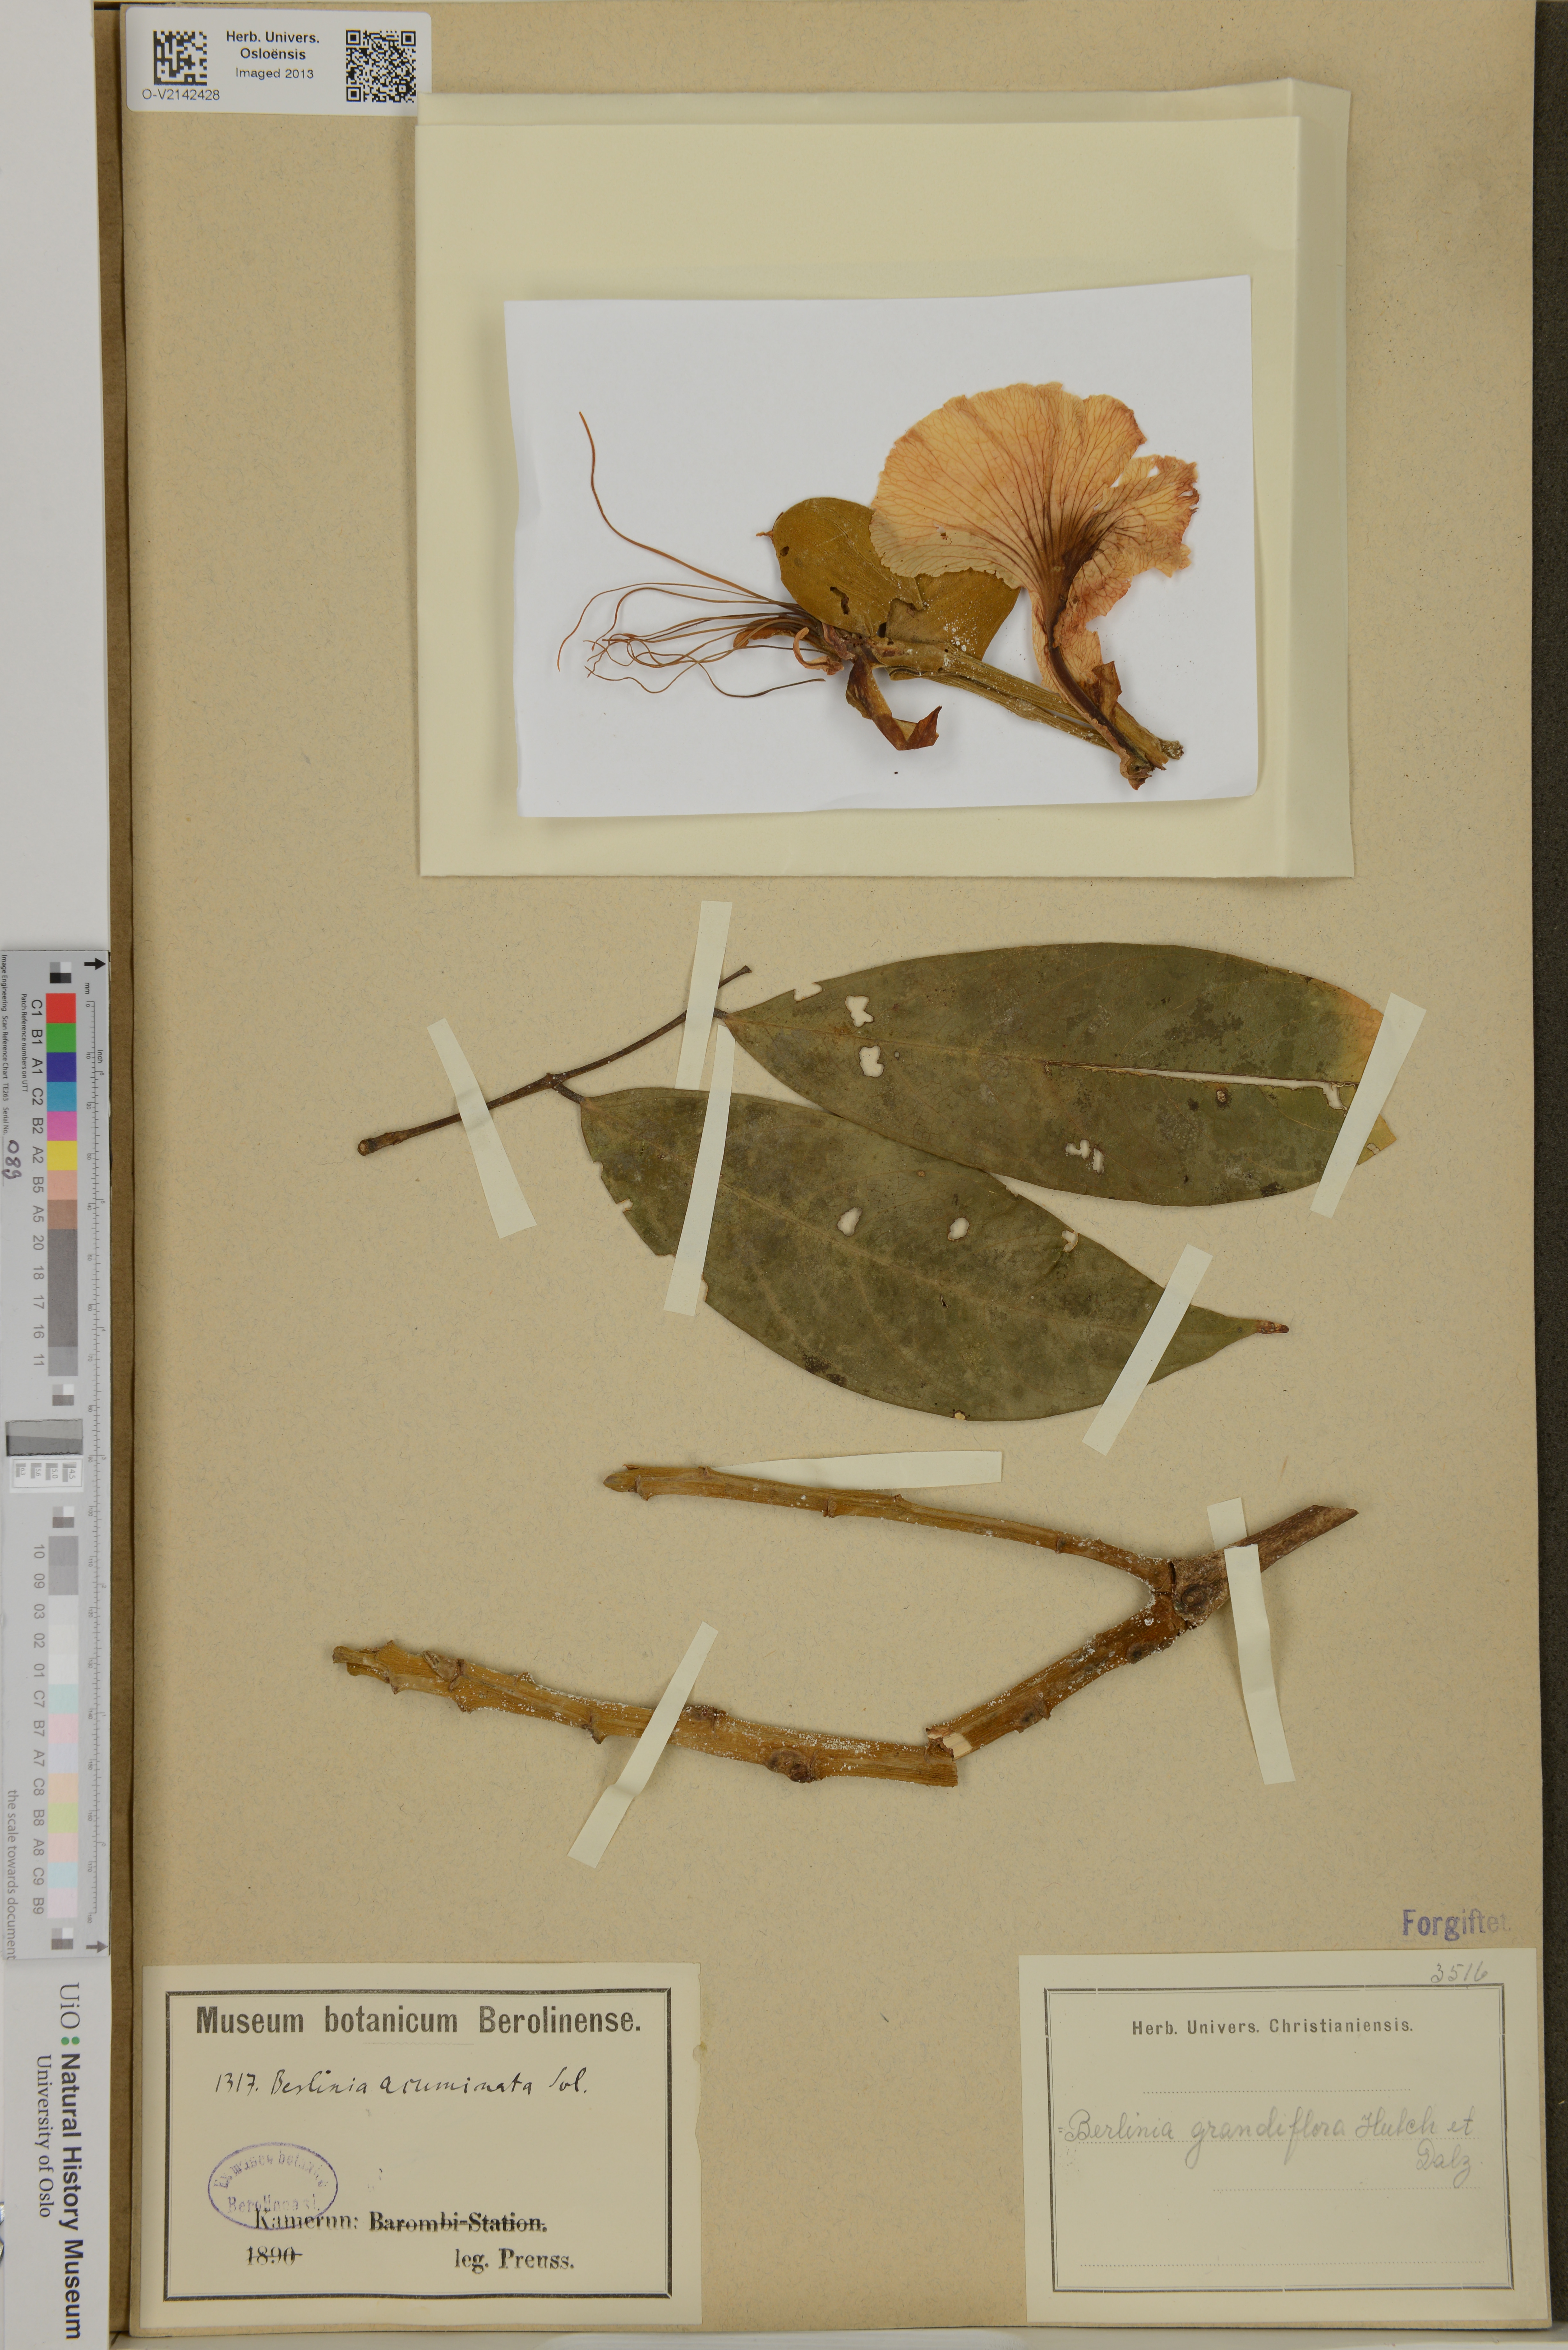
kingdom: Plantae
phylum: Tracheophyta
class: Magnoliopsida
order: Fabales
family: Fabaceae
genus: Berlinia
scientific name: Berlinia grandiflora
